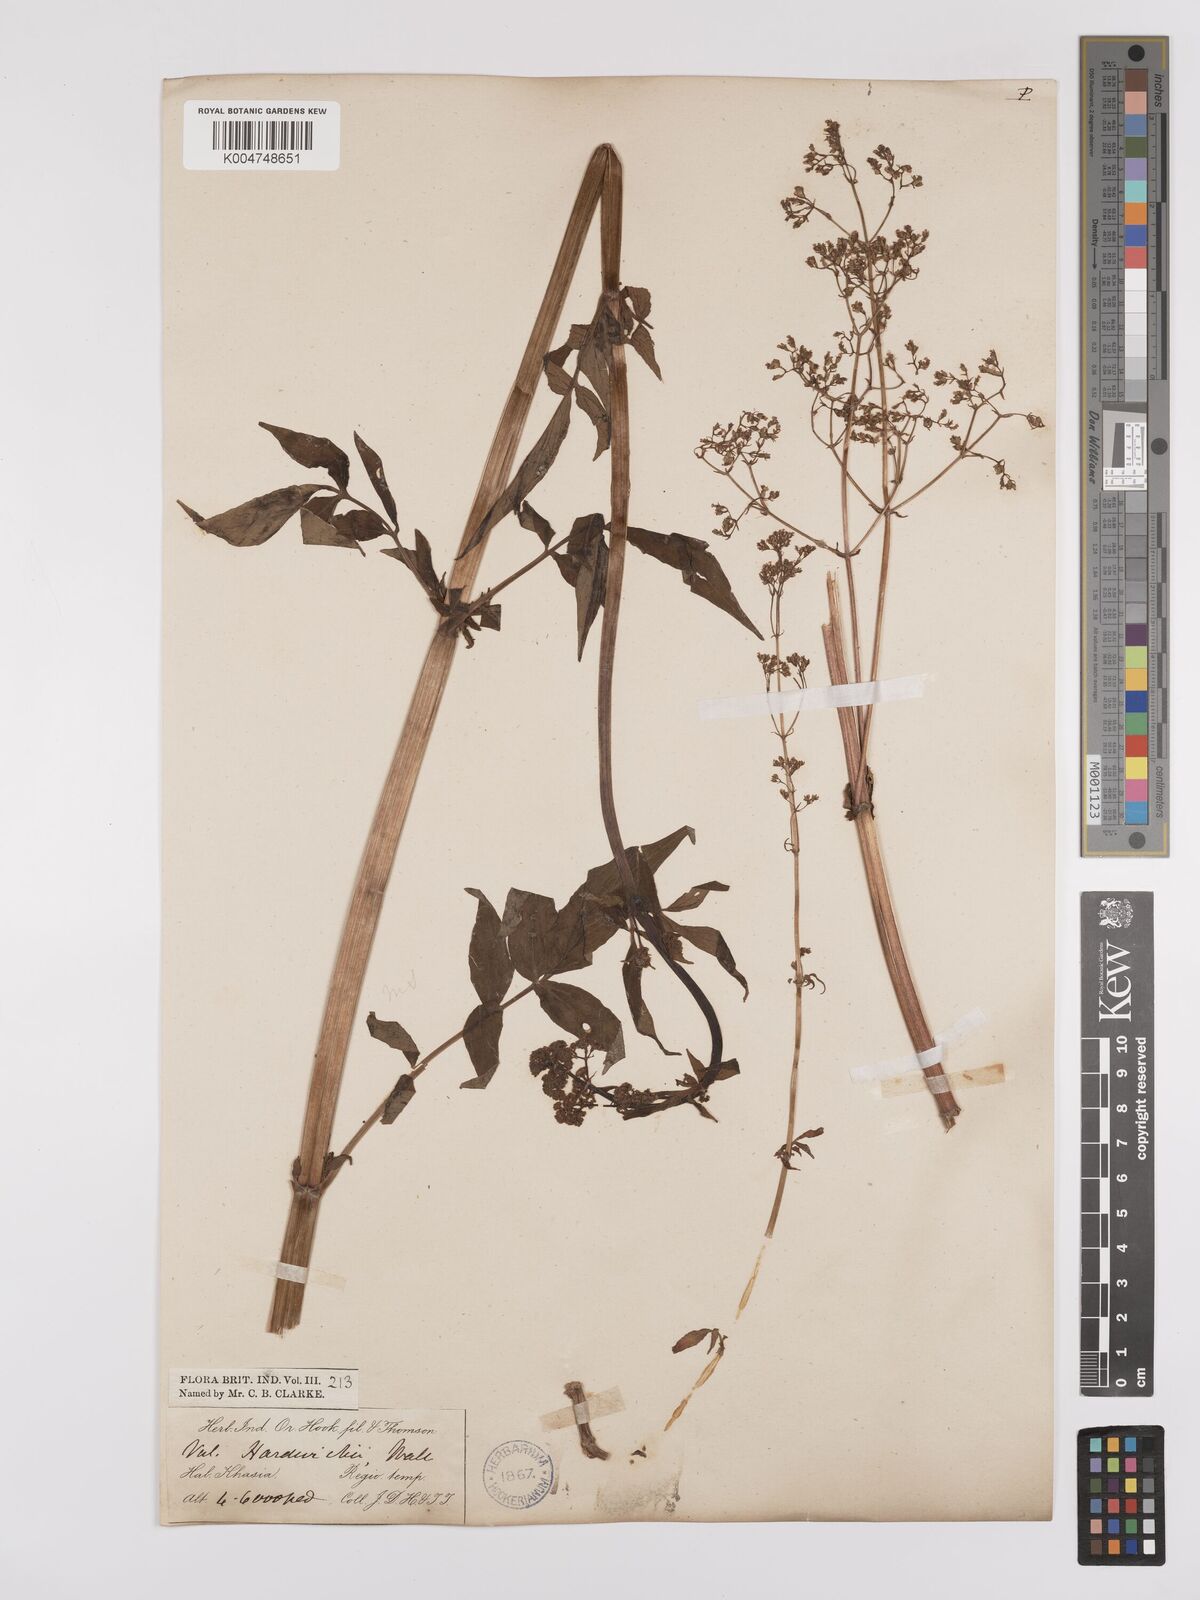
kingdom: Plantae
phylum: Tracheophyta
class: Magnoliopsida
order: Dipsacales
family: Caprifoliaceae
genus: Valeriana
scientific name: Valeriana hardwickei
